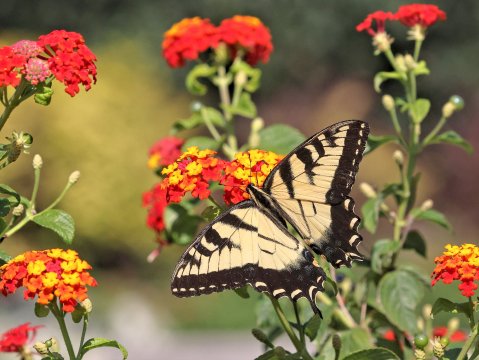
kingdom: Animalia
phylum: Arthropoda
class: Insecta
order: Lepidoptera
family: Papilionidae
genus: Pterourus
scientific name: Pterourus glaucus
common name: Eastern Tiger Swallowtail
